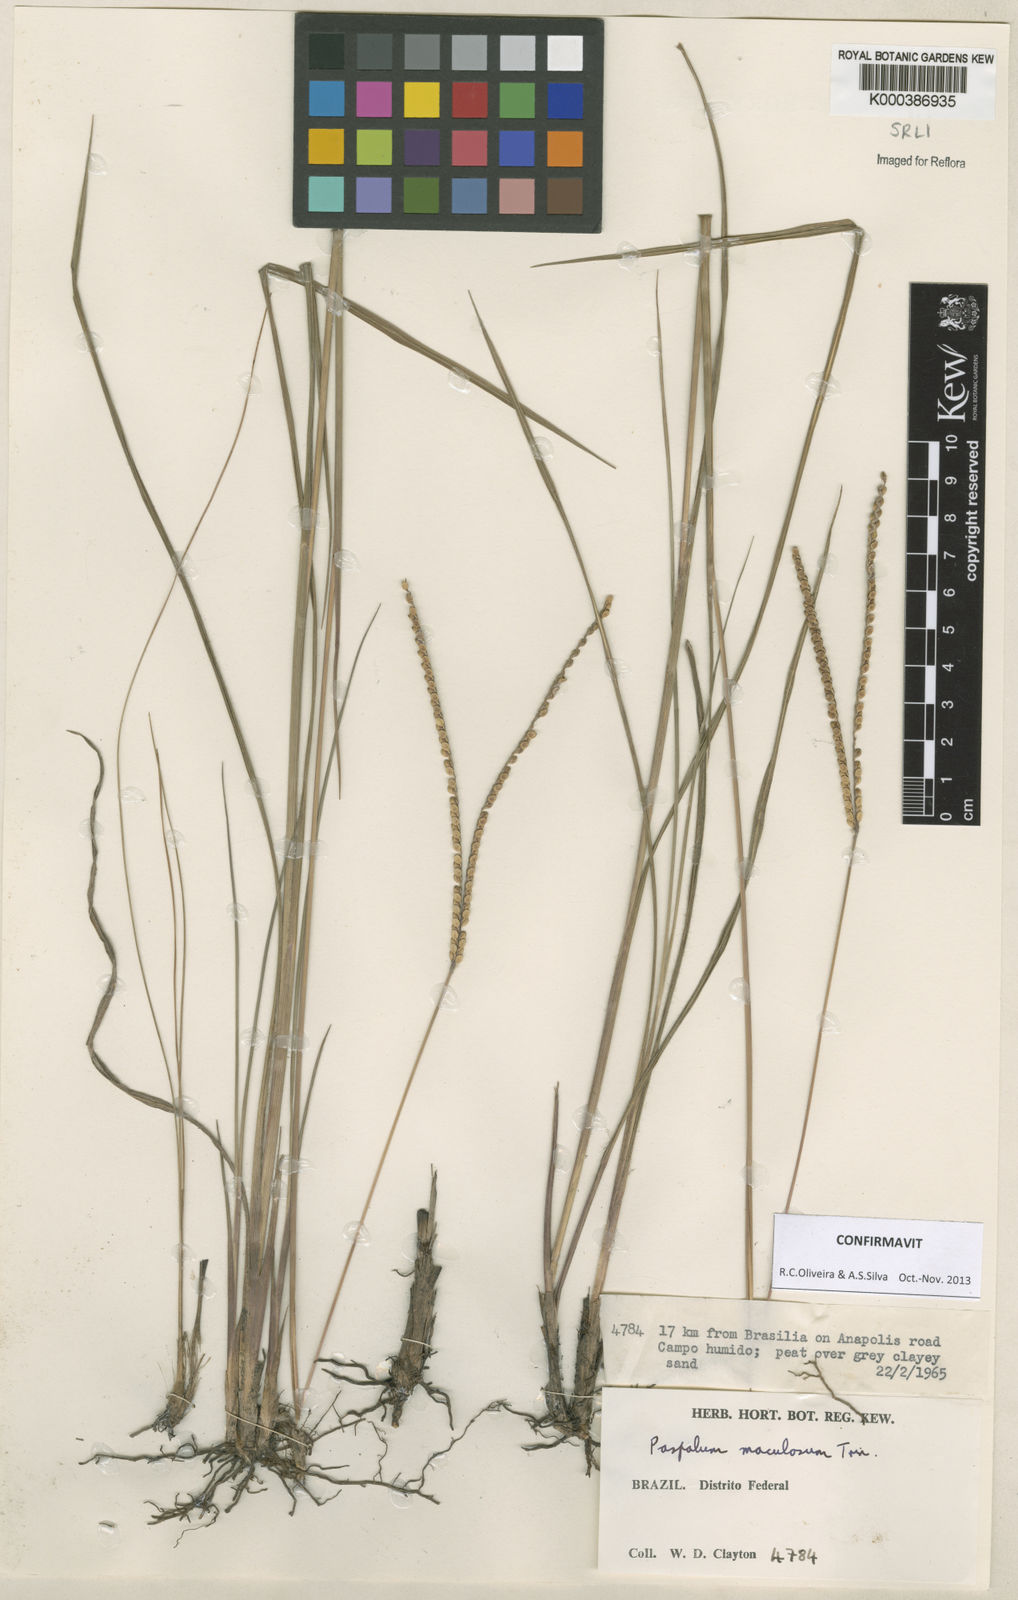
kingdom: Plantae
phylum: Tracheophyta
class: Liliopsida
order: Poales
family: Poaceae
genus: Paspalum
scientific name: Paspalum maculosum
